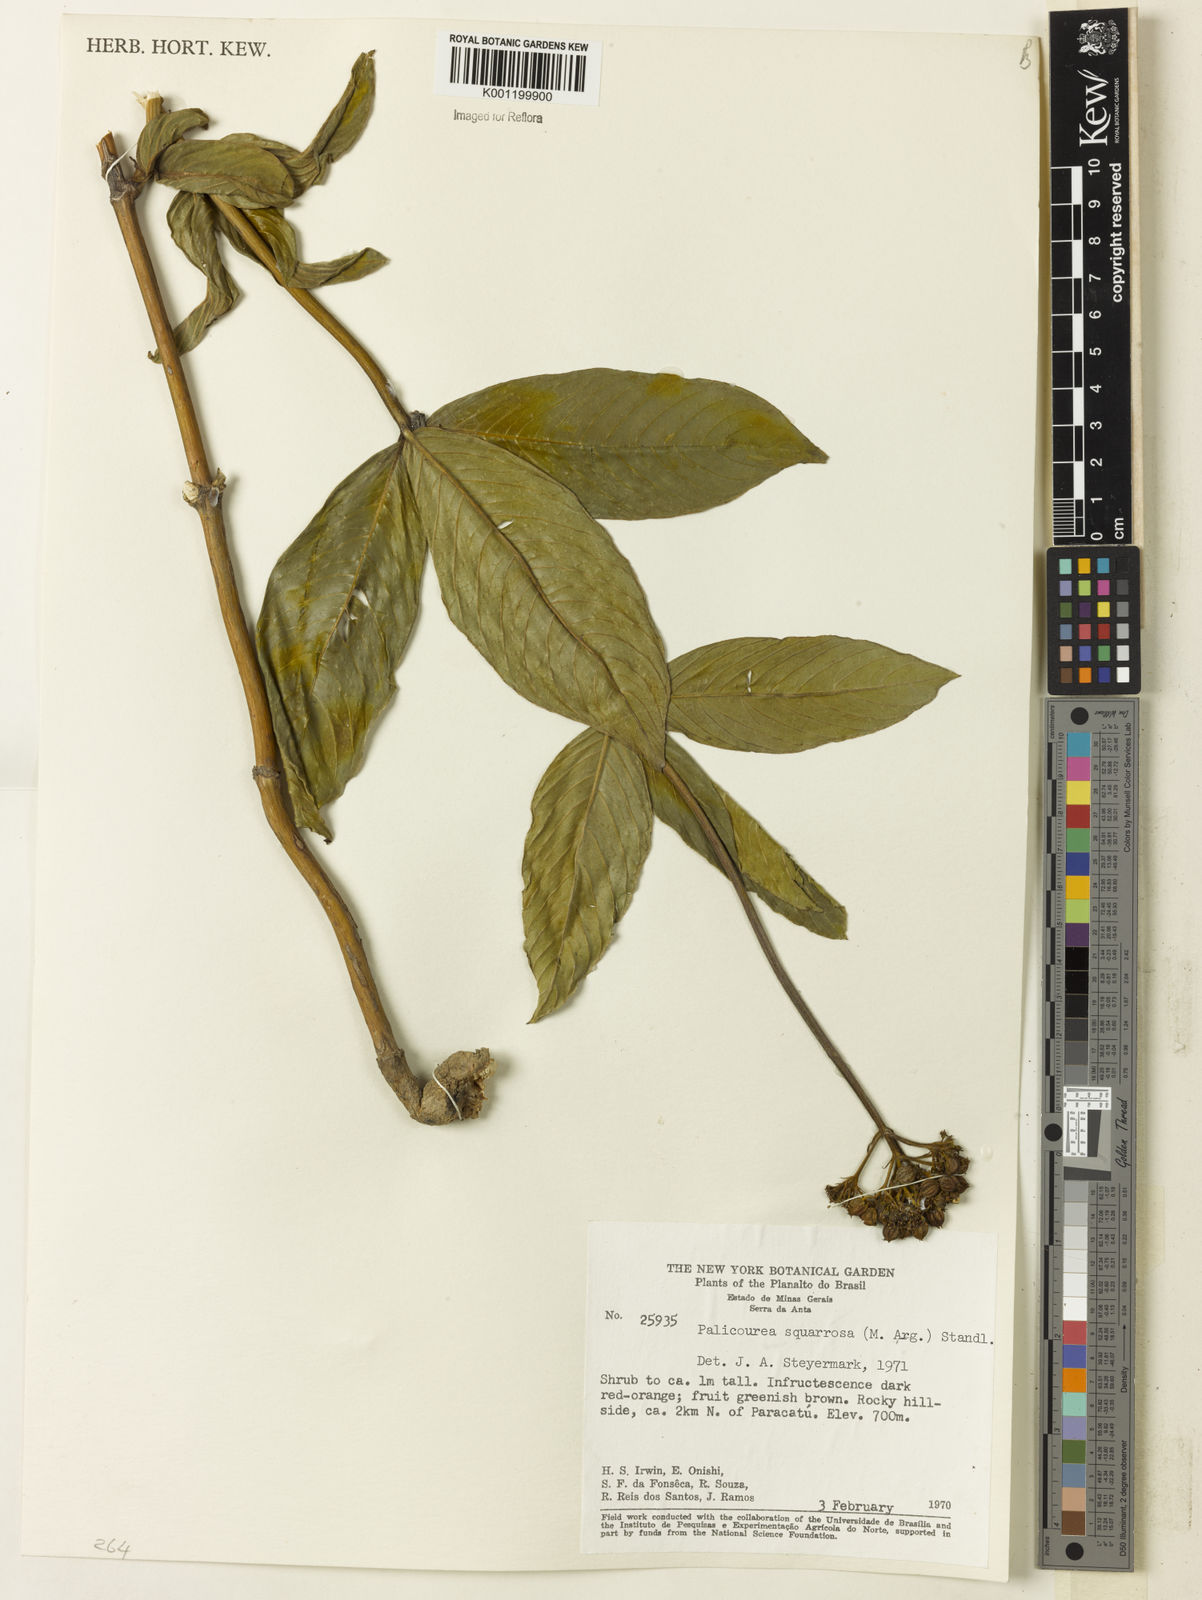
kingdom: Plantae
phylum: Tracheophyta
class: Magnoliopsida
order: Gentianales
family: Rubiaceae
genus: Palicourea
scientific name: Palicourea
